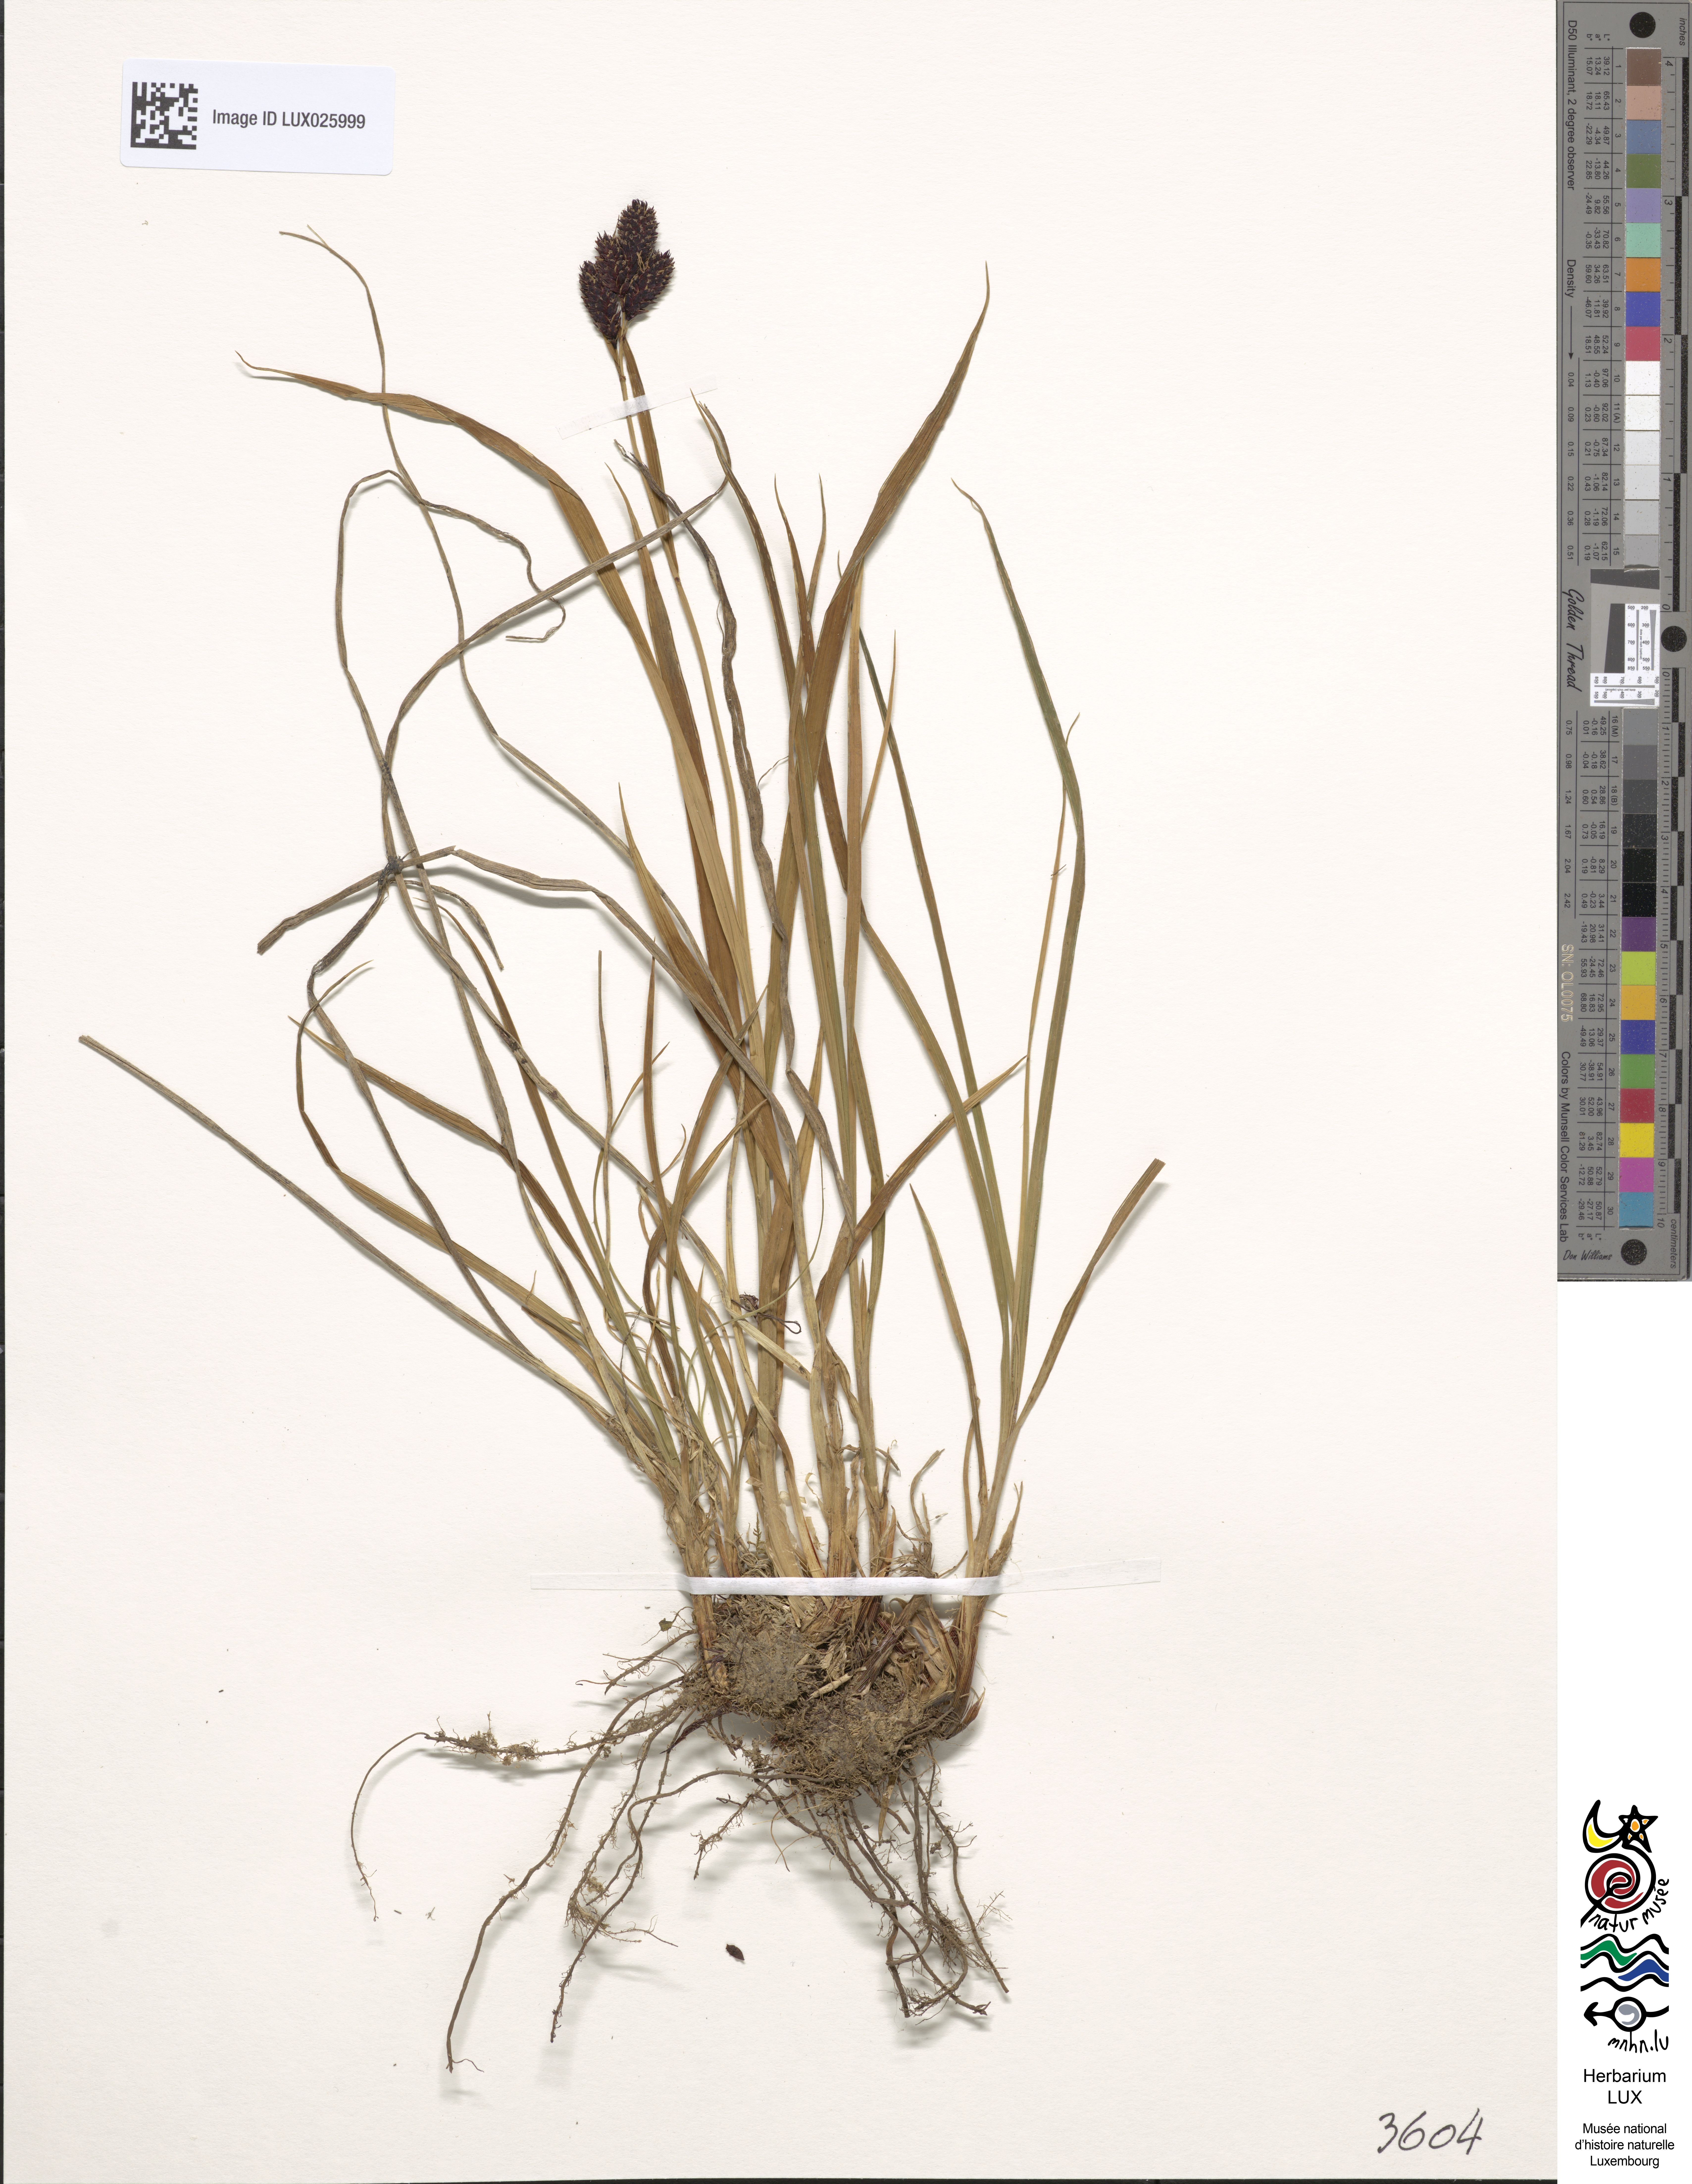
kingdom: Plantae
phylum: Tracheophyta
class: Liliopsida
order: Poales
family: Cyperaceae
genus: Carex
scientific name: Carex atrata
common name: Black alpine sedge
